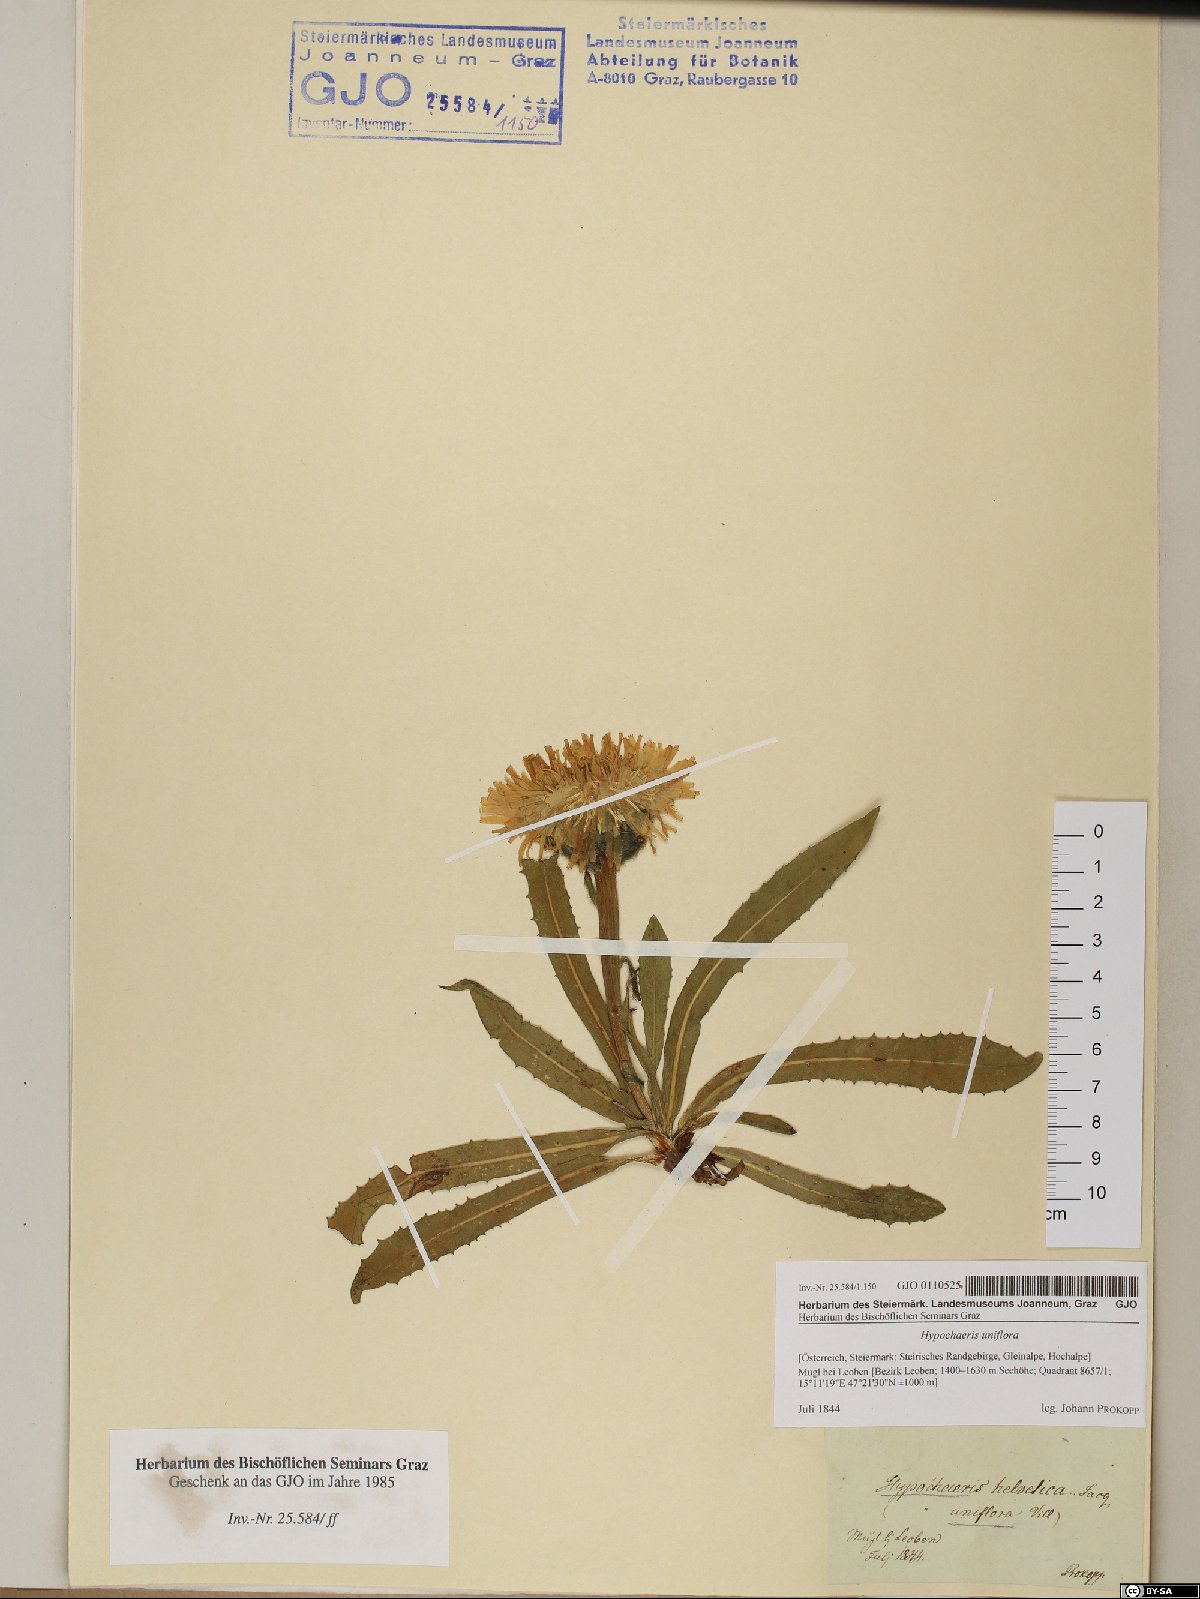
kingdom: Plantae
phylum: Tracheophyta
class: Magnoliopsida
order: Asterales
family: Asteraceae
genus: Trommsdorffia
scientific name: Trommsdorffia uniflora
